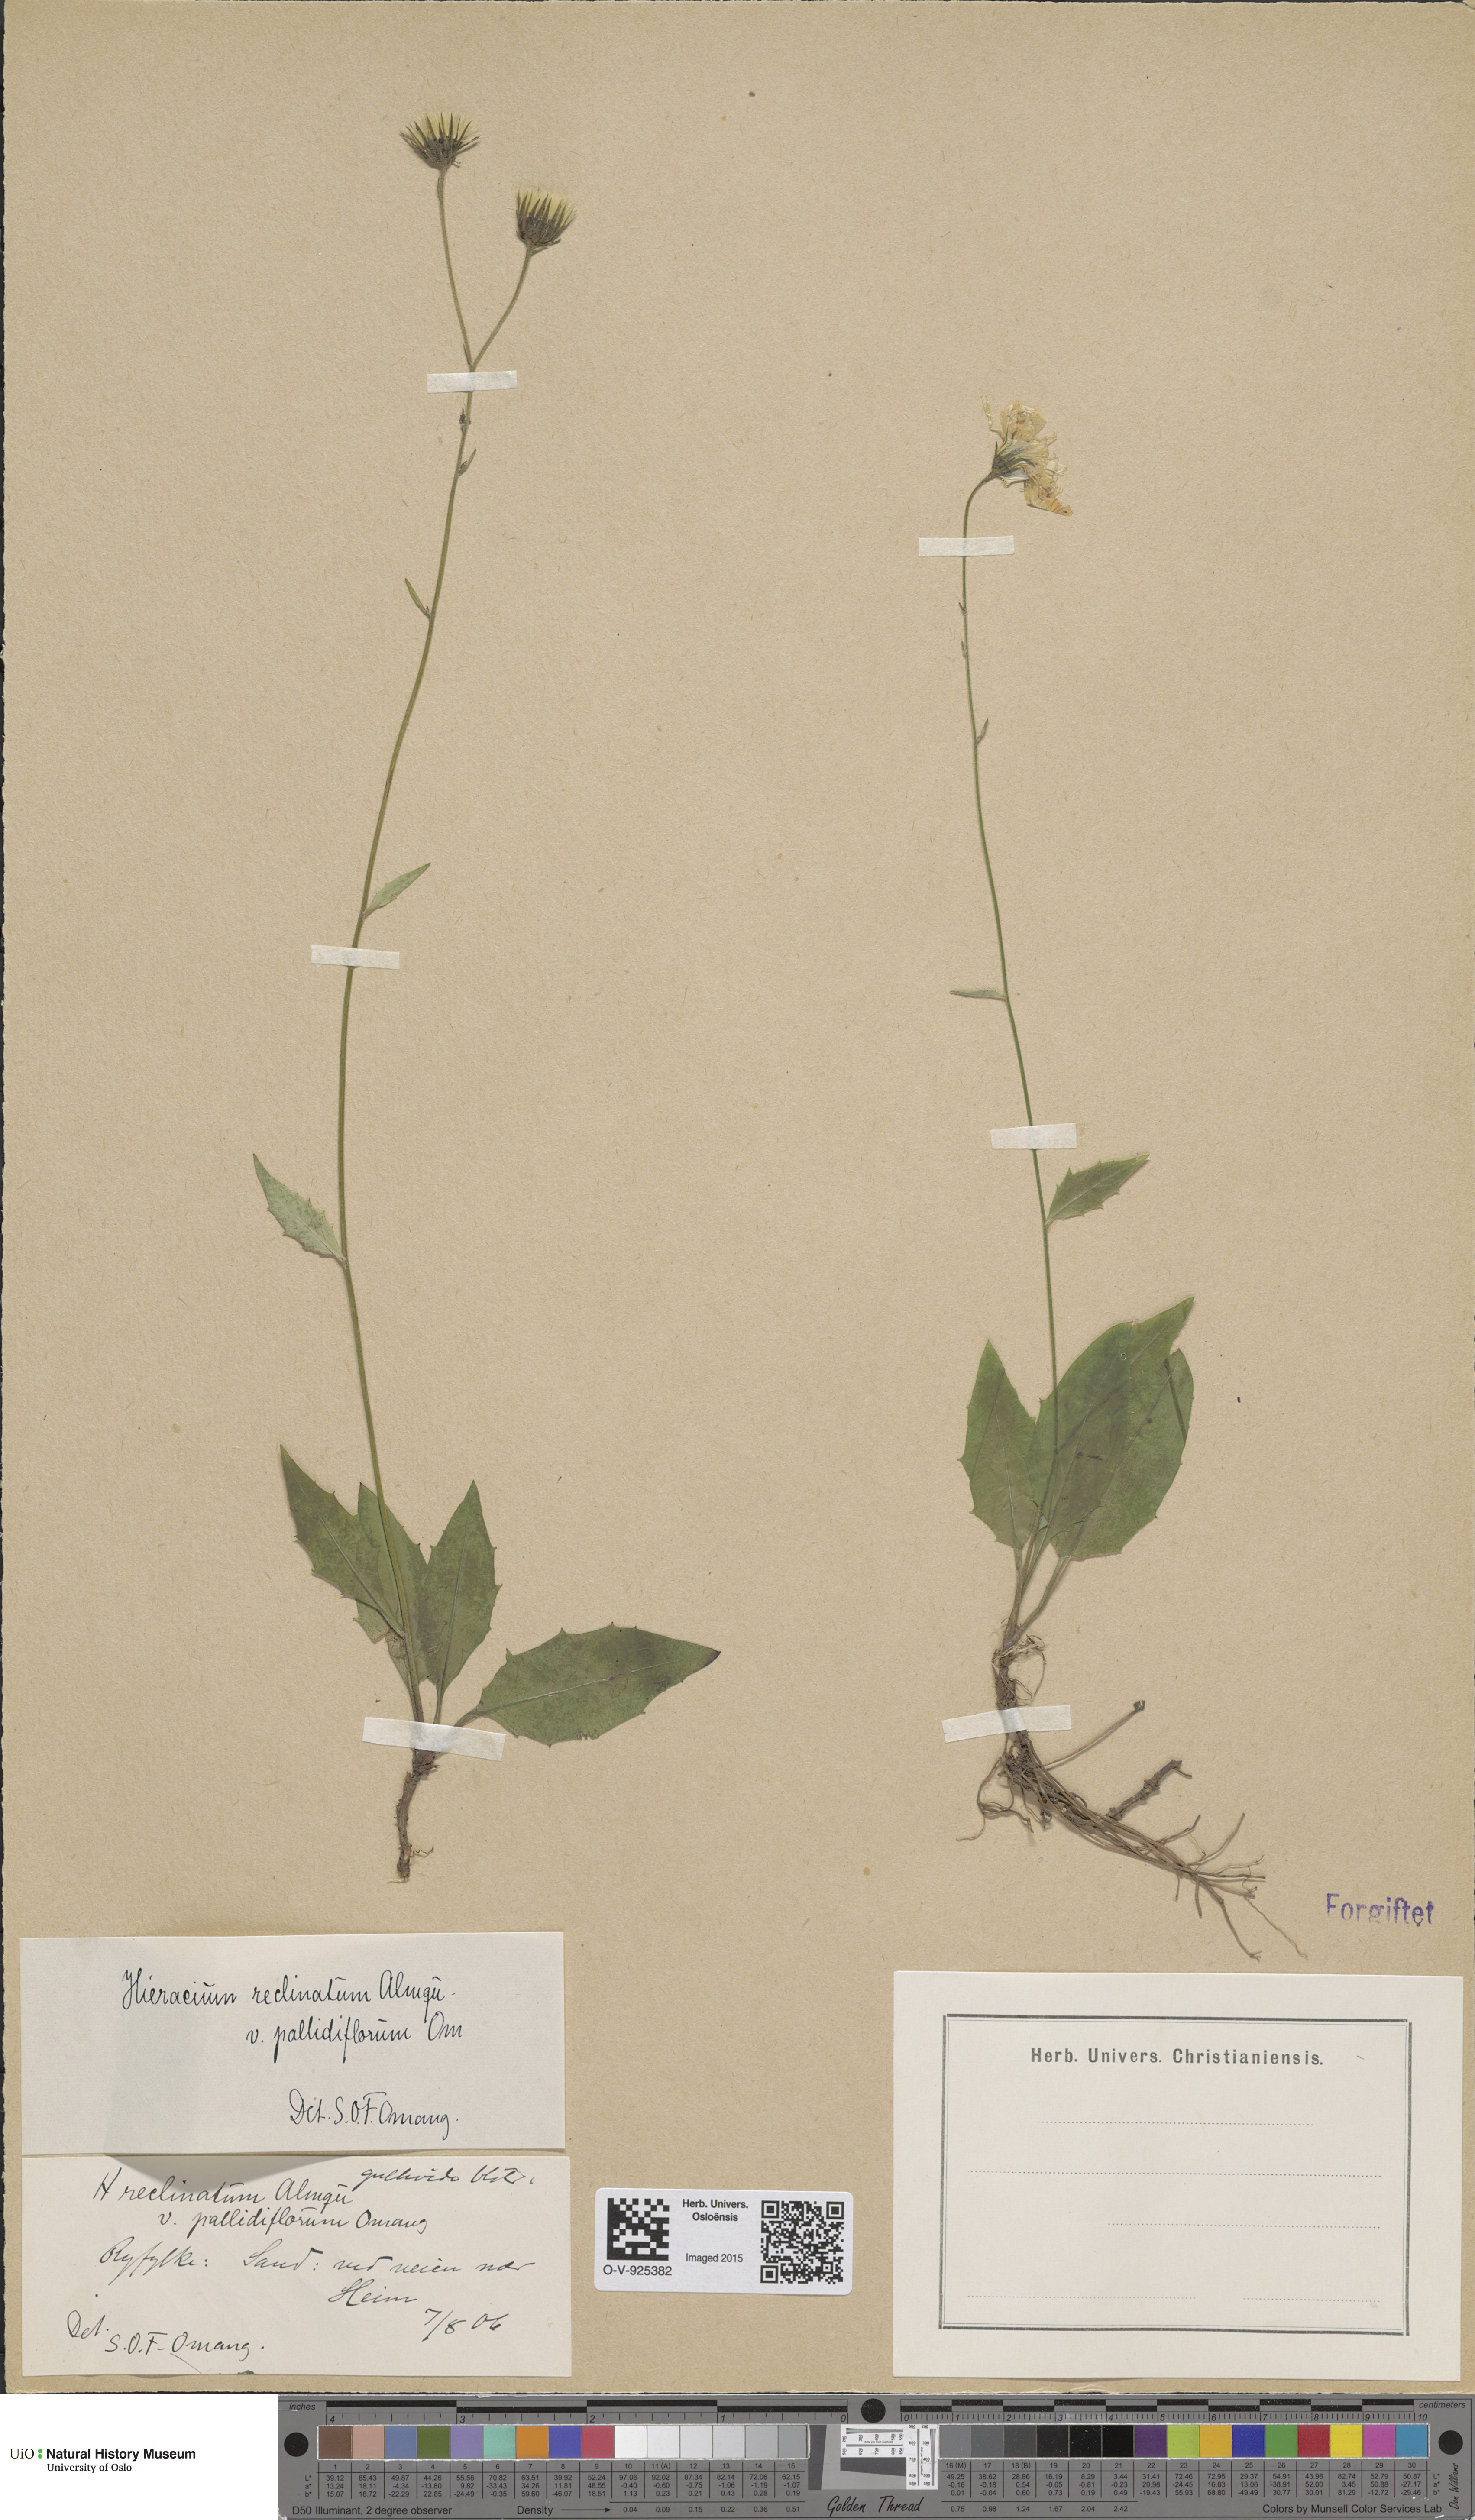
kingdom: Plantae
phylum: Tracheophyta
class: Magnoliopsida
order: Asterales
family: Asteraceae
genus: Hieracium
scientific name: Hieracium caesium
